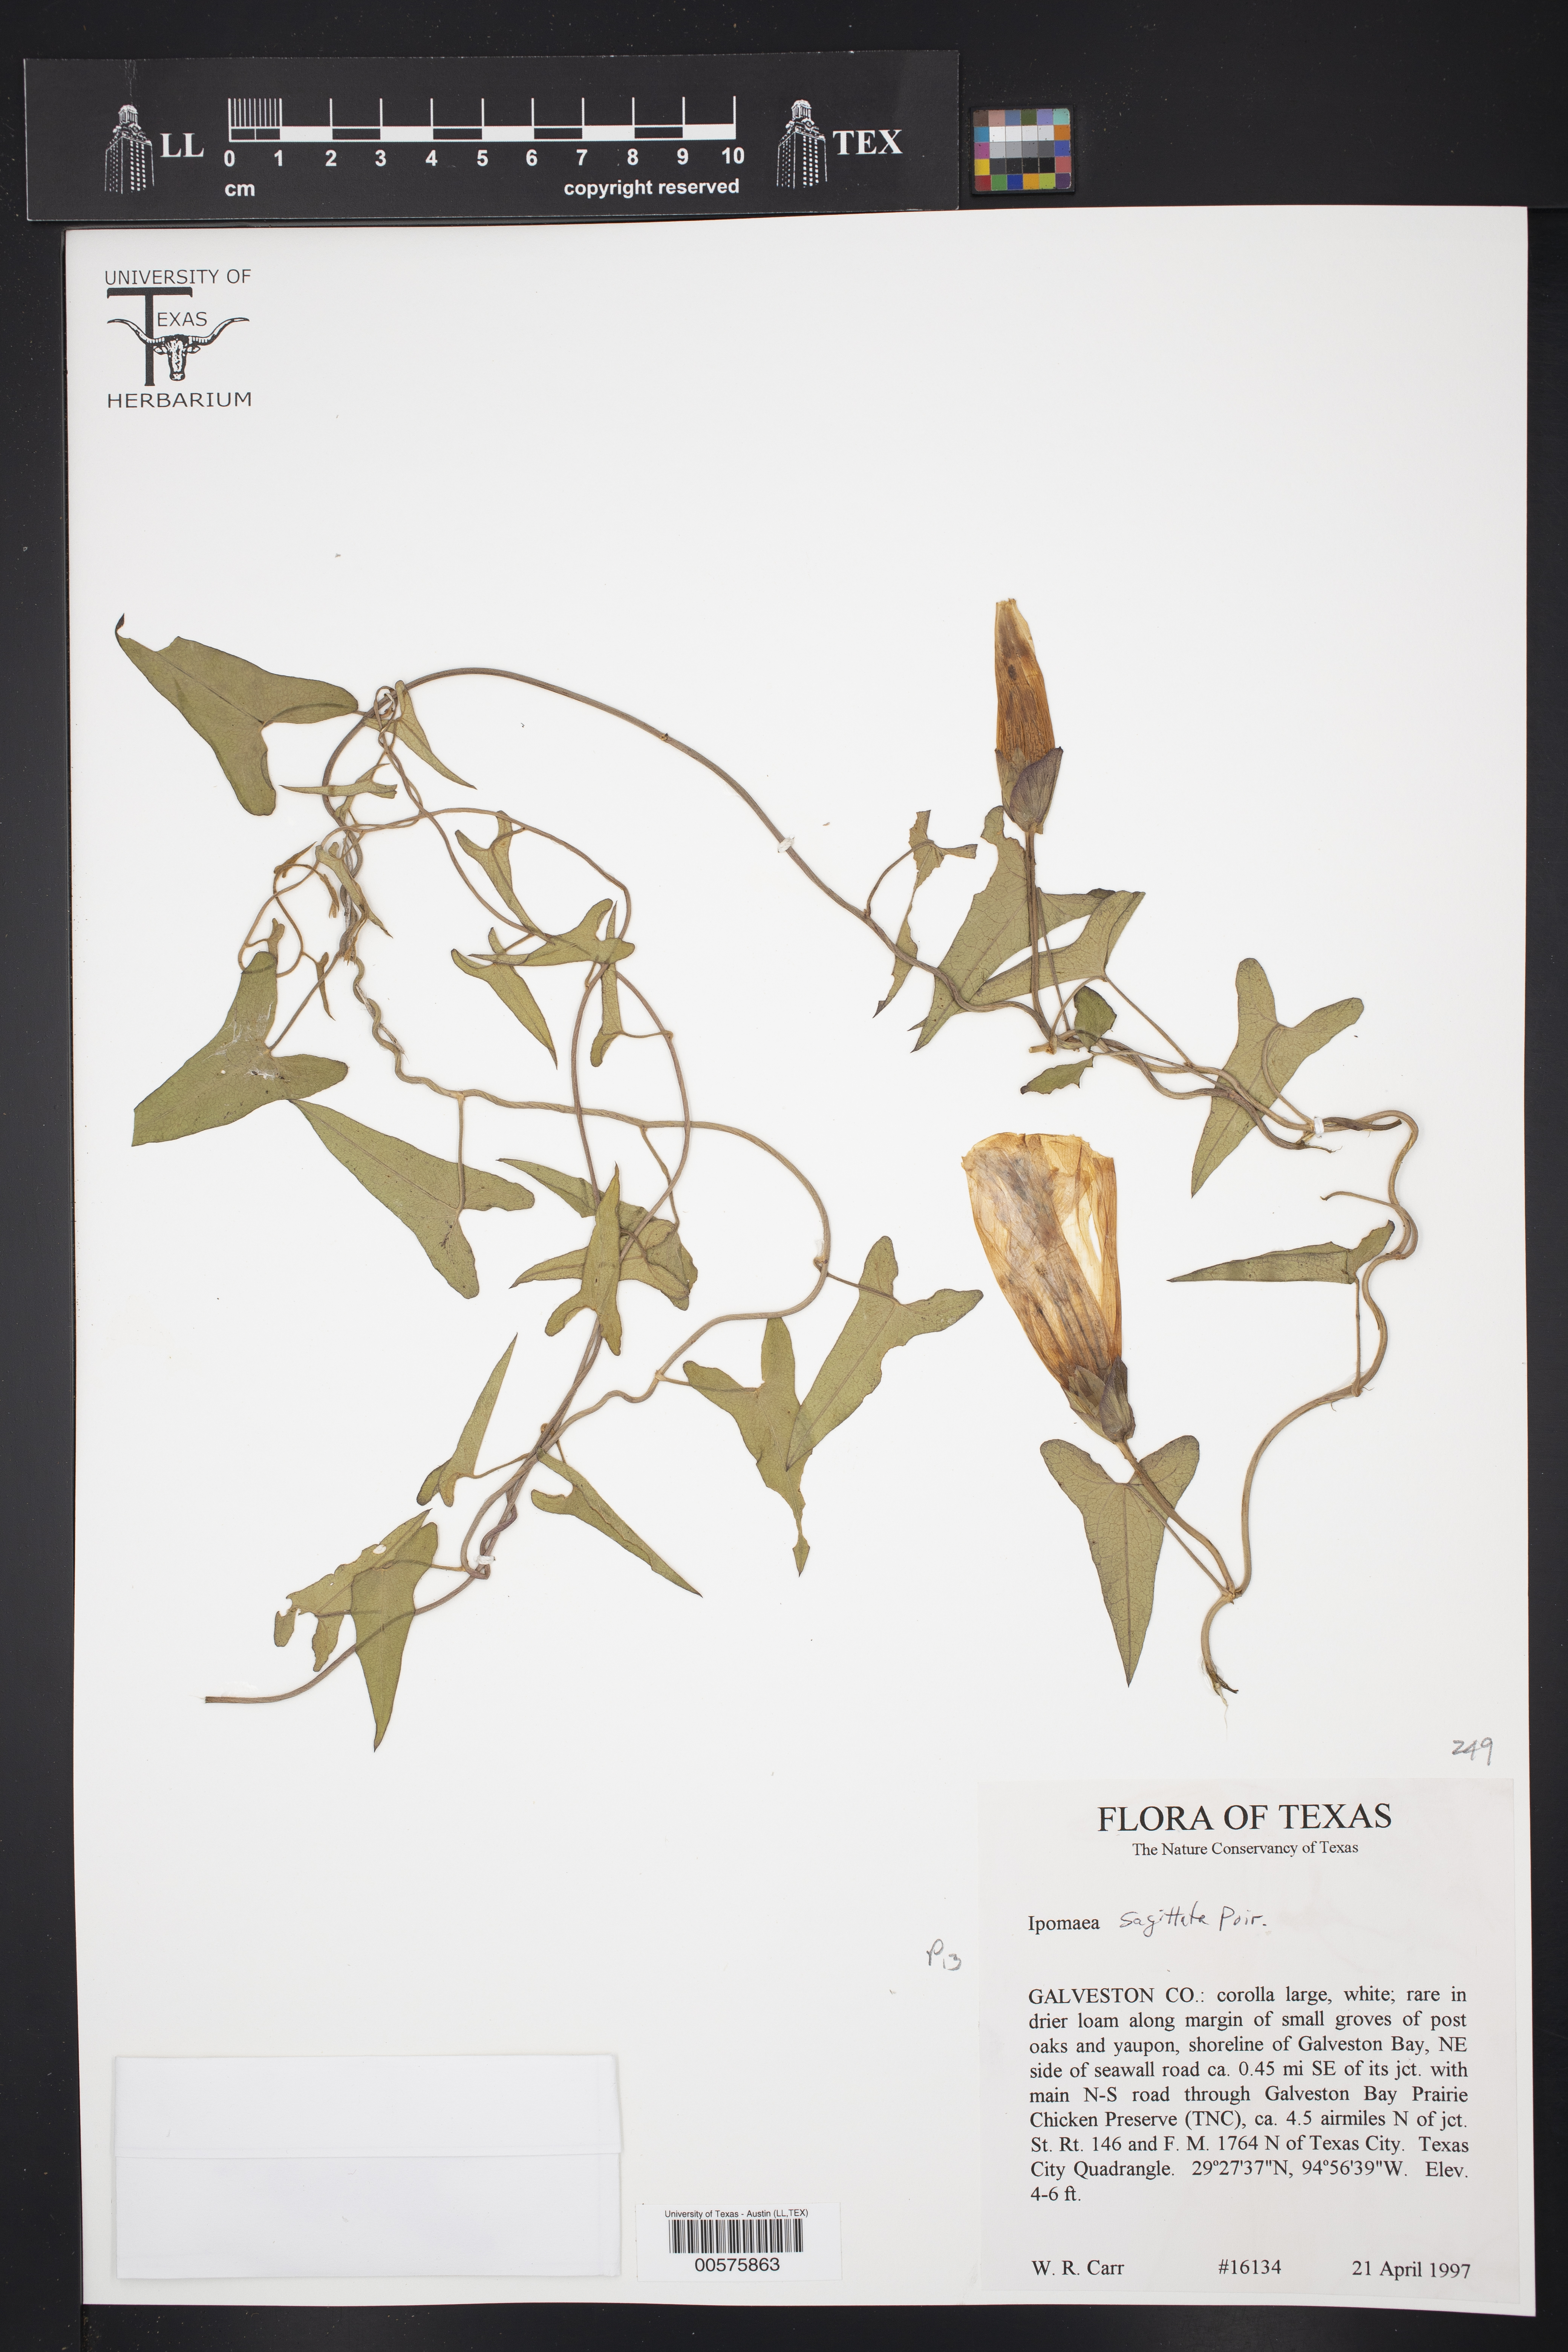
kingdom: Plantae
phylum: Tracheophyta
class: Magnoliopsida
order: Solanales
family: Convolvulaceae
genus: Ipomoea
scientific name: Ipomoea sagittata
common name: Saltmarsh morning glory
